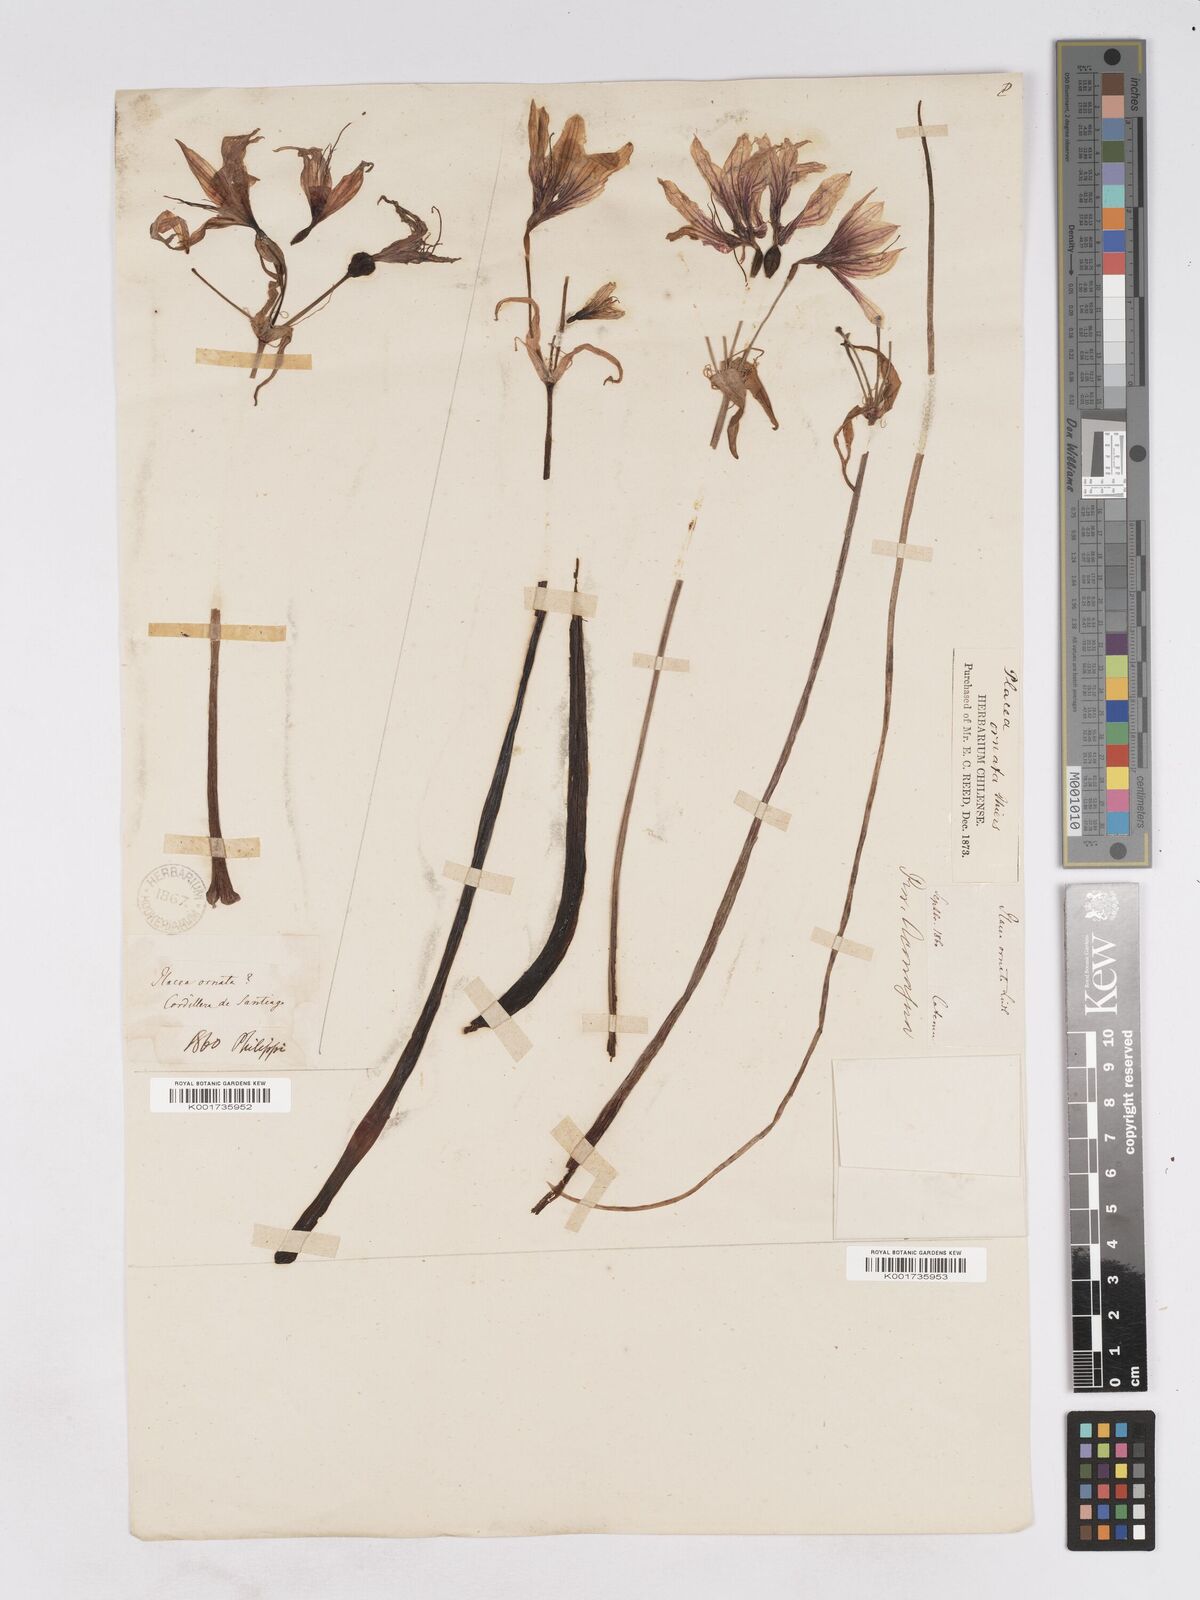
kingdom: Plantae
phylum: Tracheophyta
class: Liliopsida
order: Asparagales
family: Amaryllidaceae
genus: Phycella
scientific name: Phycella ornata
